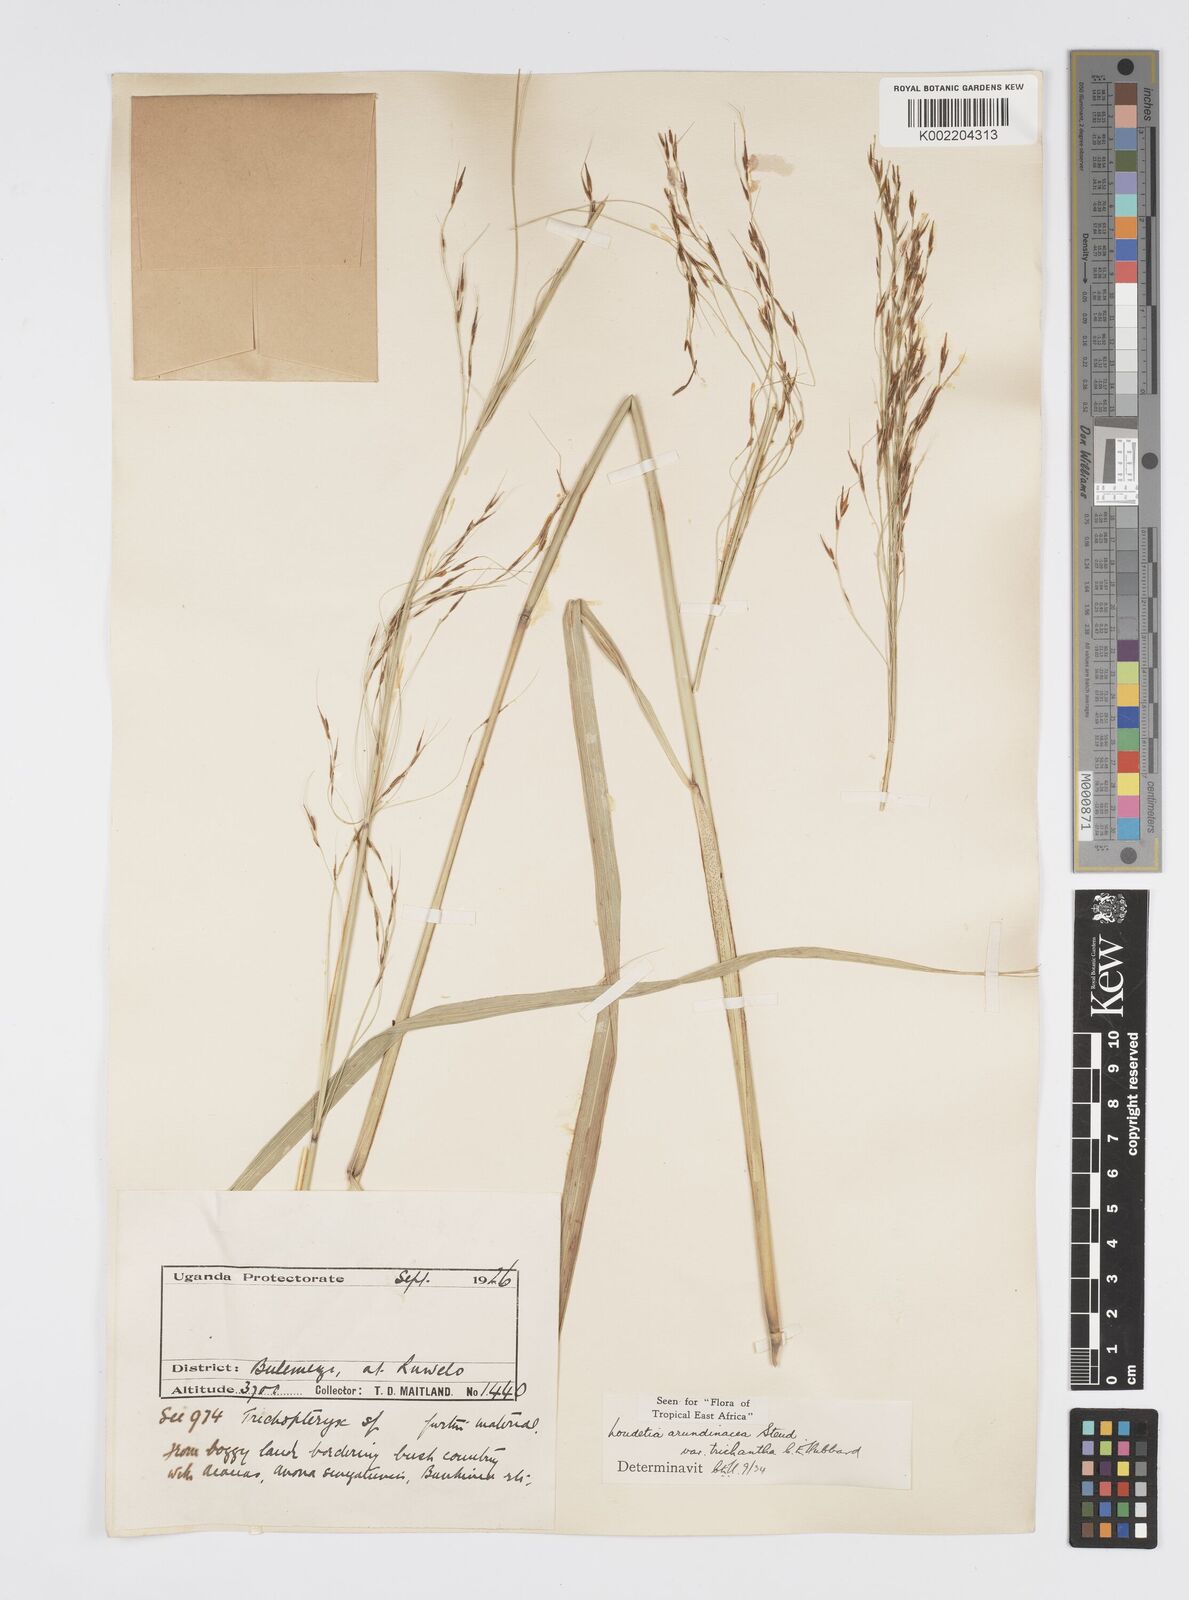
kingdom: Plantae
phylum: Tracheophyta
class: Liliopsida
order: Poales
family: Poaceae
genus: Loudetia
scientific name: Loudetia arundinacea
